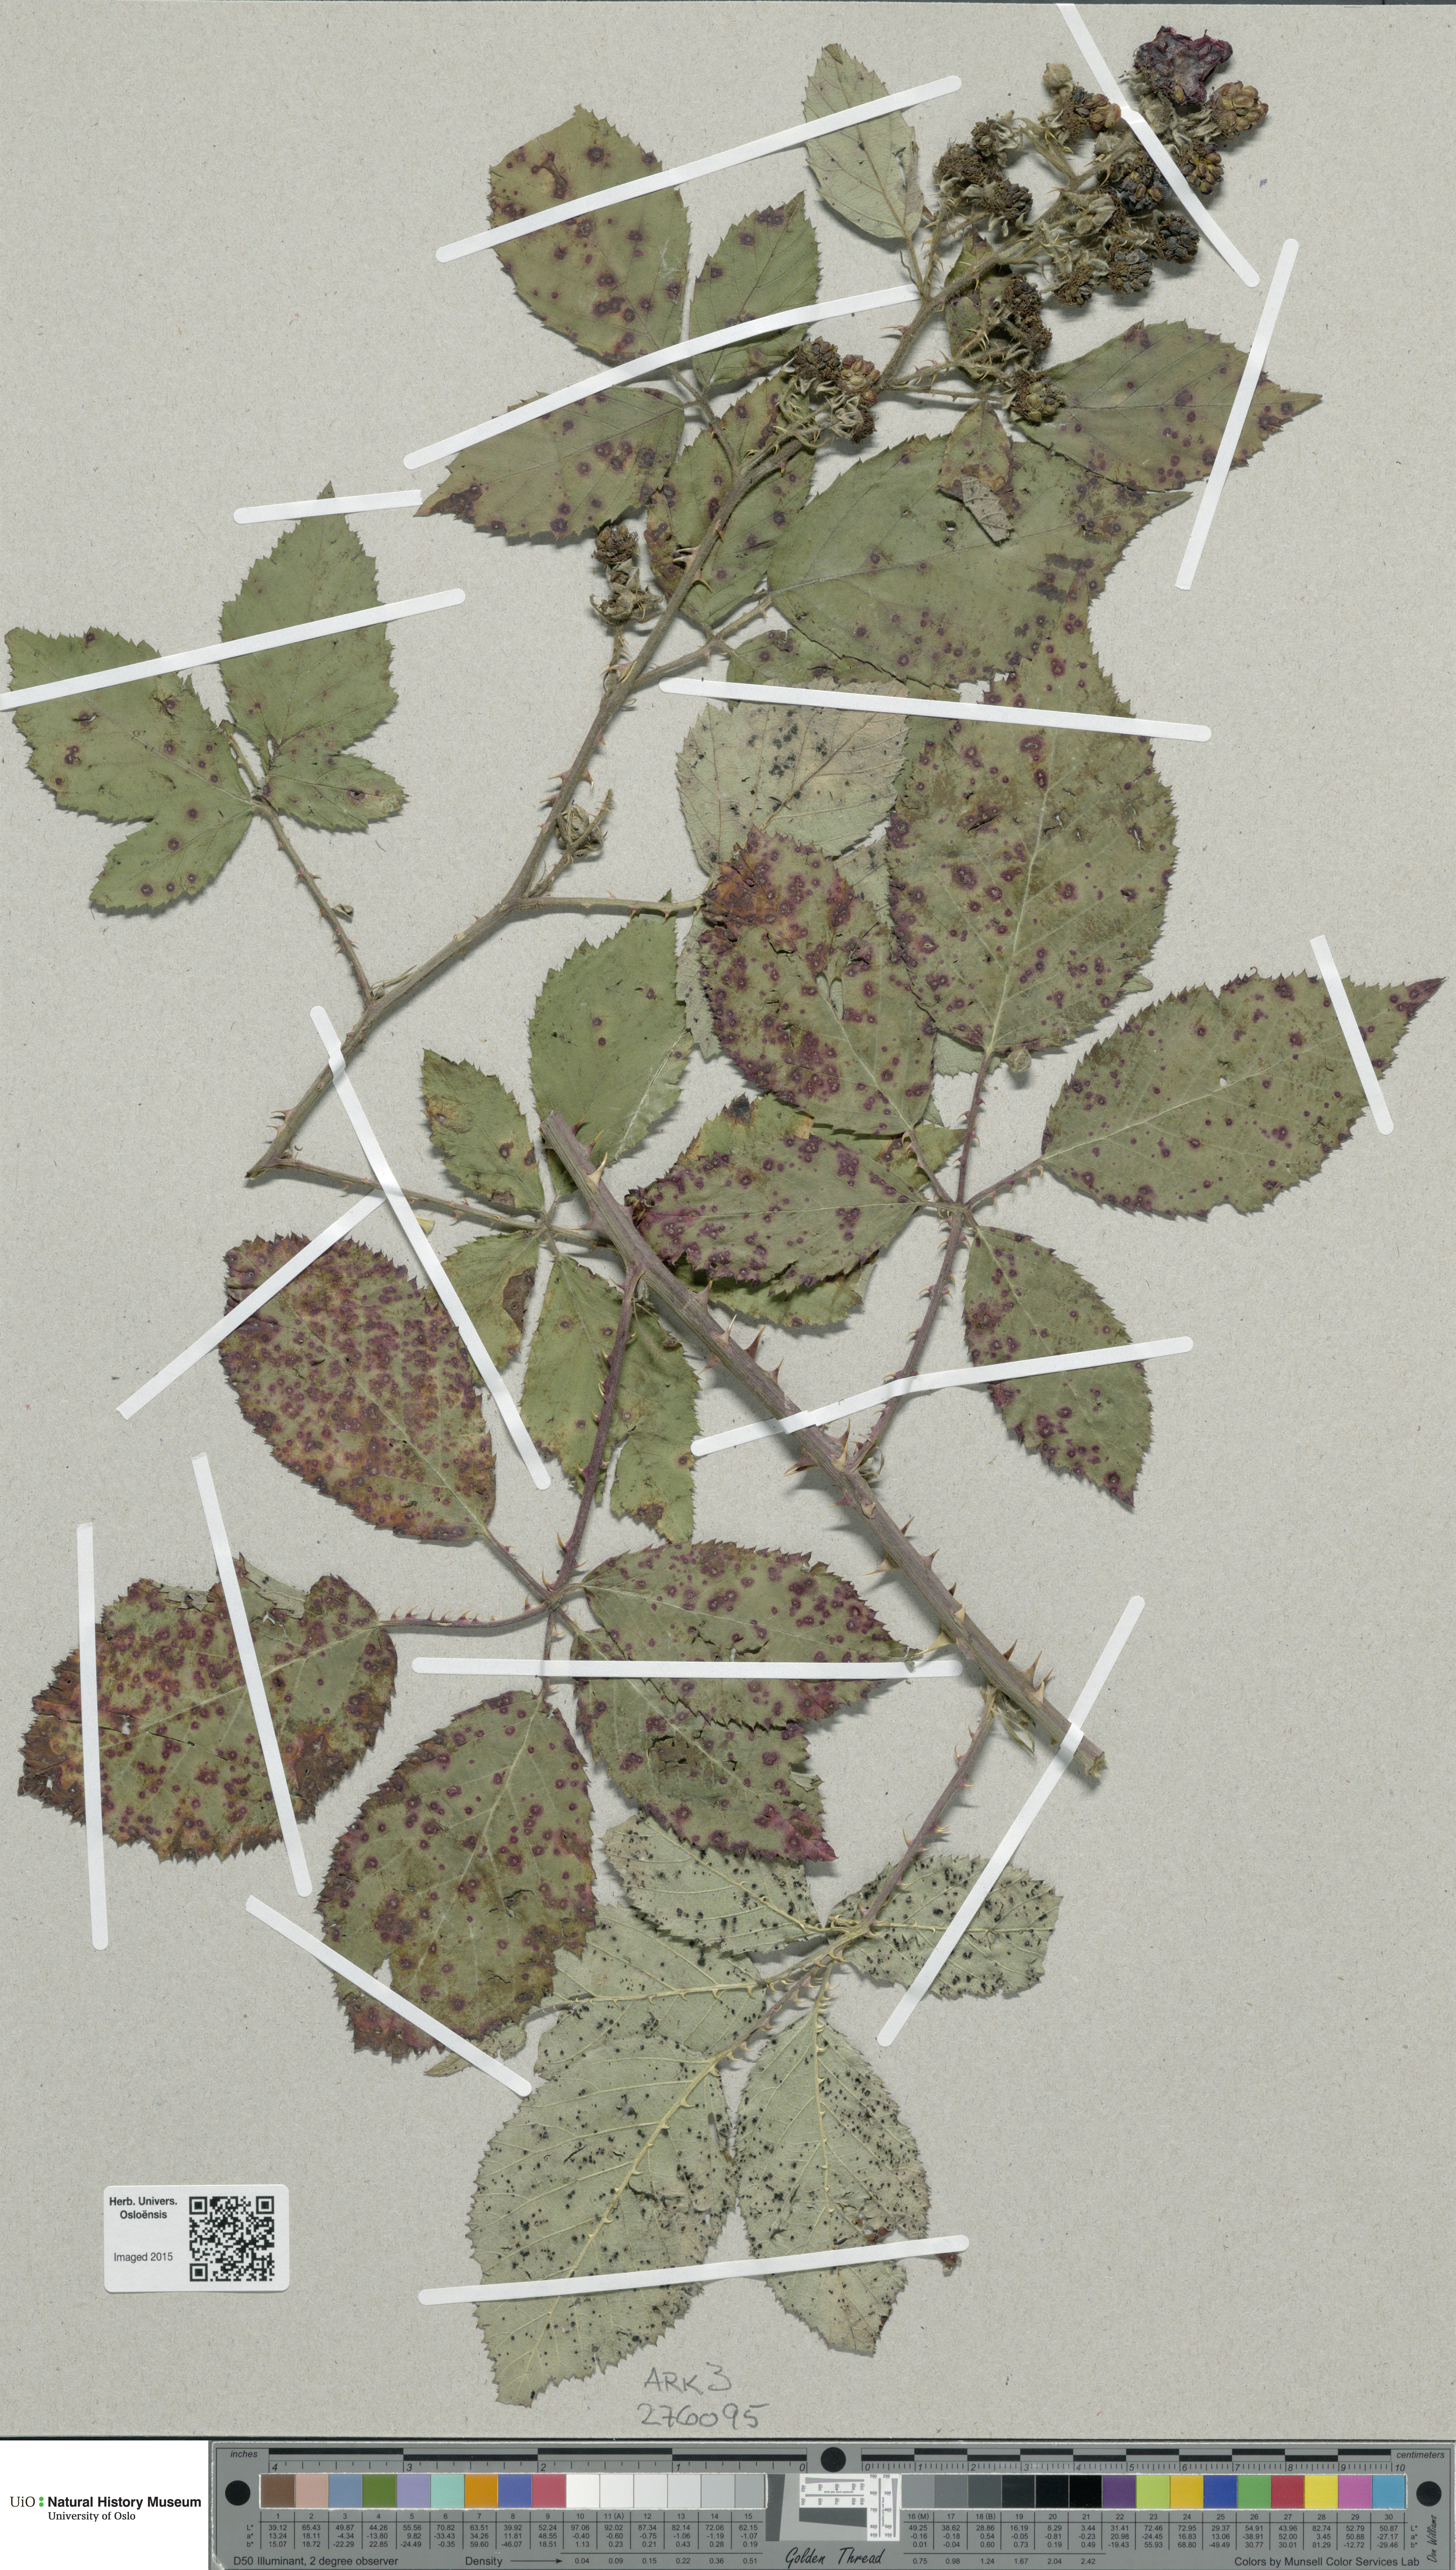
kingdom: Plantae
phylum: Tracheophyta
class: Magnoliopsida
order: Rosales
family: Rosaceae
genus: Rubus
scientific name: Rubus
